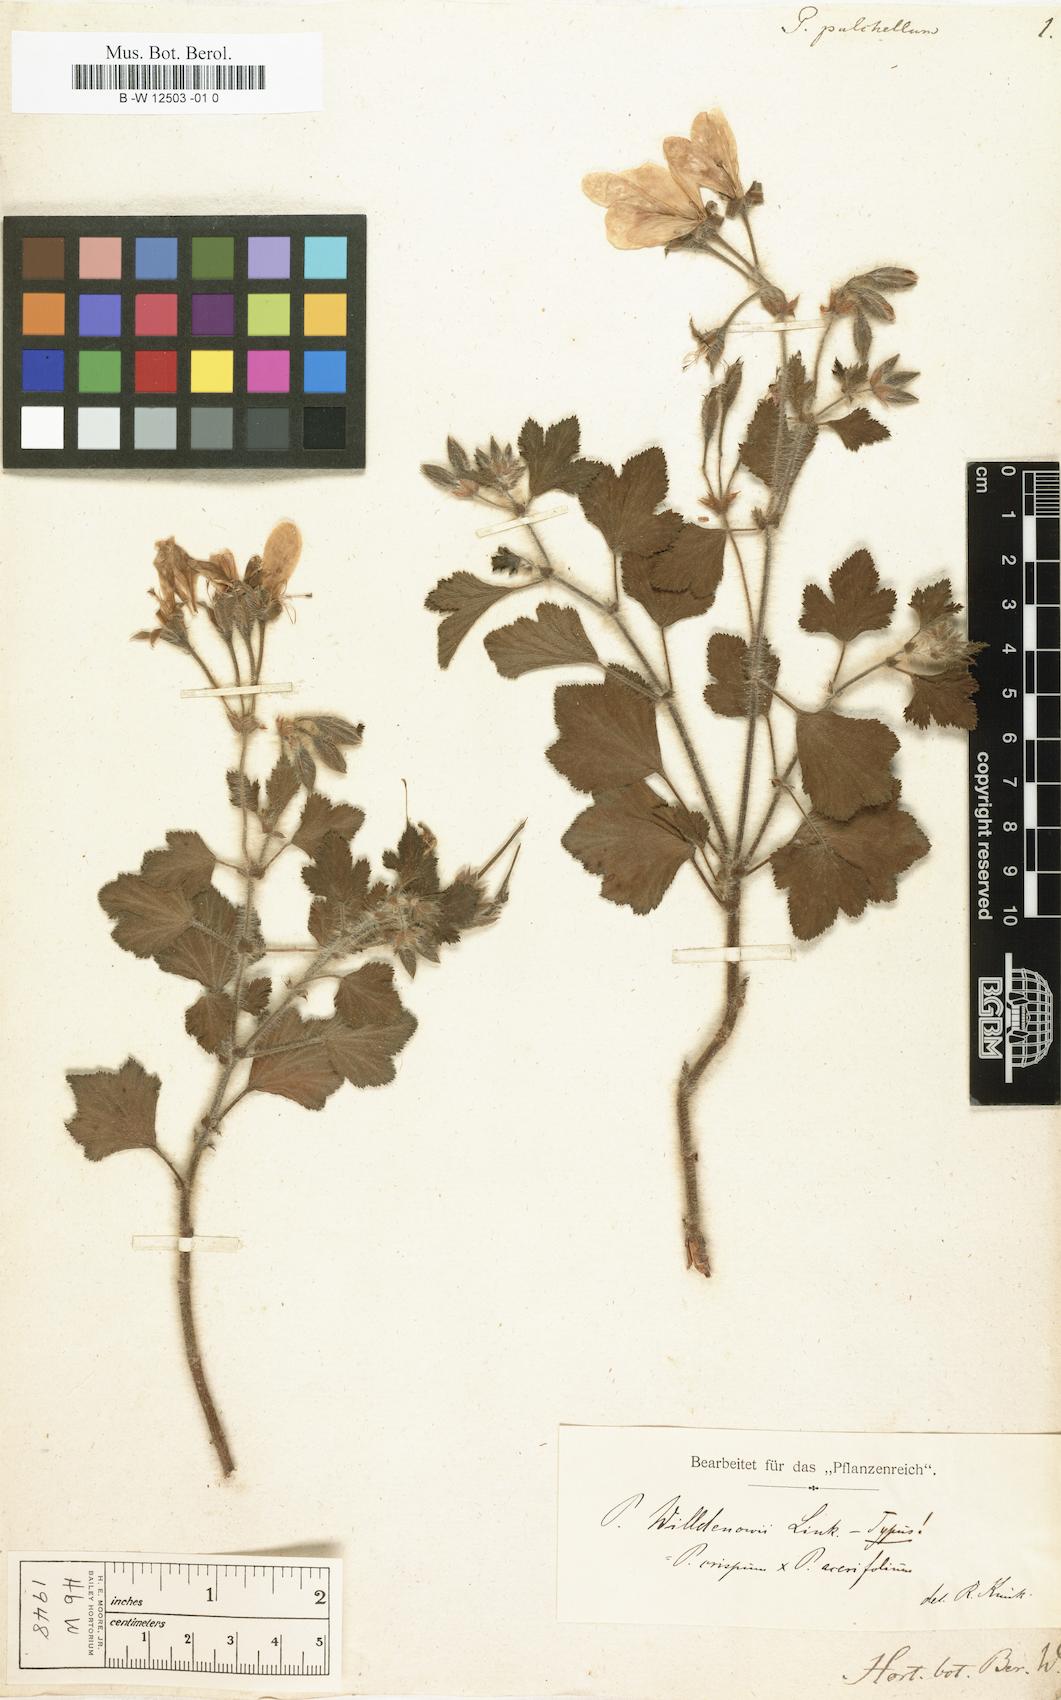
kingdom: Plantae
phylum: Tracheophyta
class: Magnoliopsida
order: Geraniales
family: Geraniaceae
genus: Pelargonium
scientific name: Pelargonium pulchellum
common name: Nonesuch pelargonium
